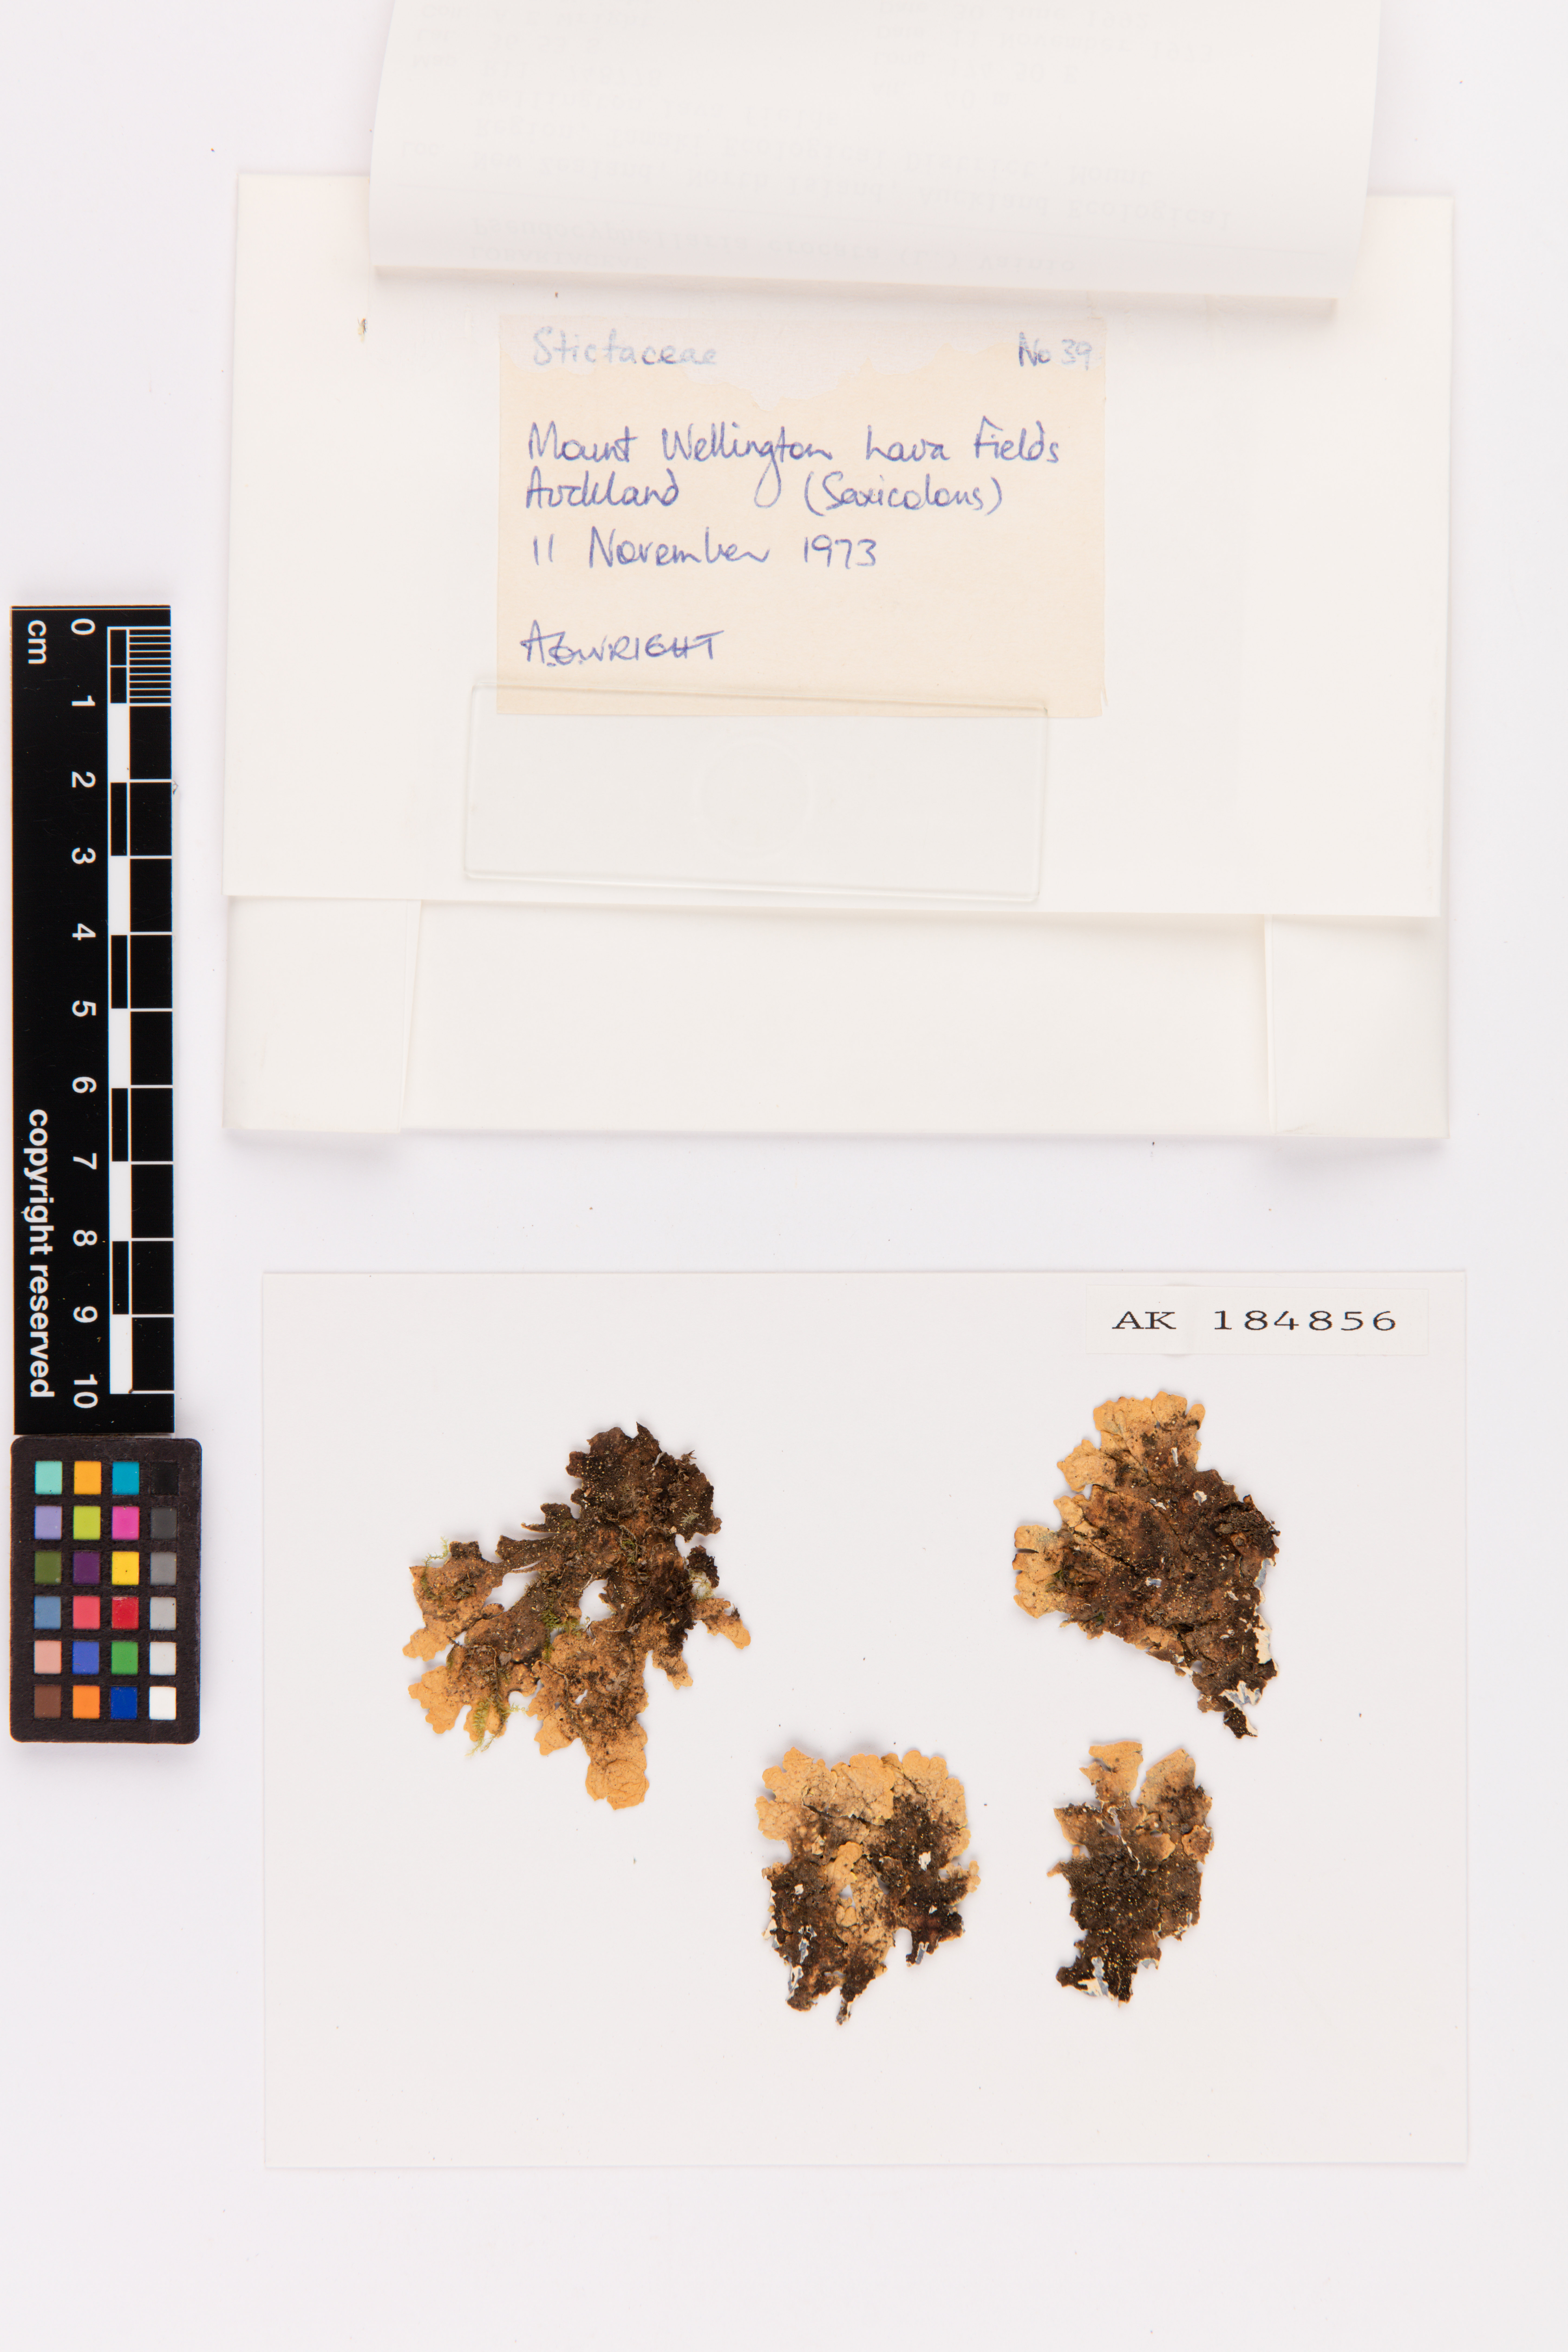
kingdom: Fungi
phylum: Ascomycota
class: Lecanoromycetes
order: Peltigerales
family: Lobariaceae
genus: Pseudocyphellaria
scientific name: Pseudocyphellaria crocata
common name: Golden specklebelly
